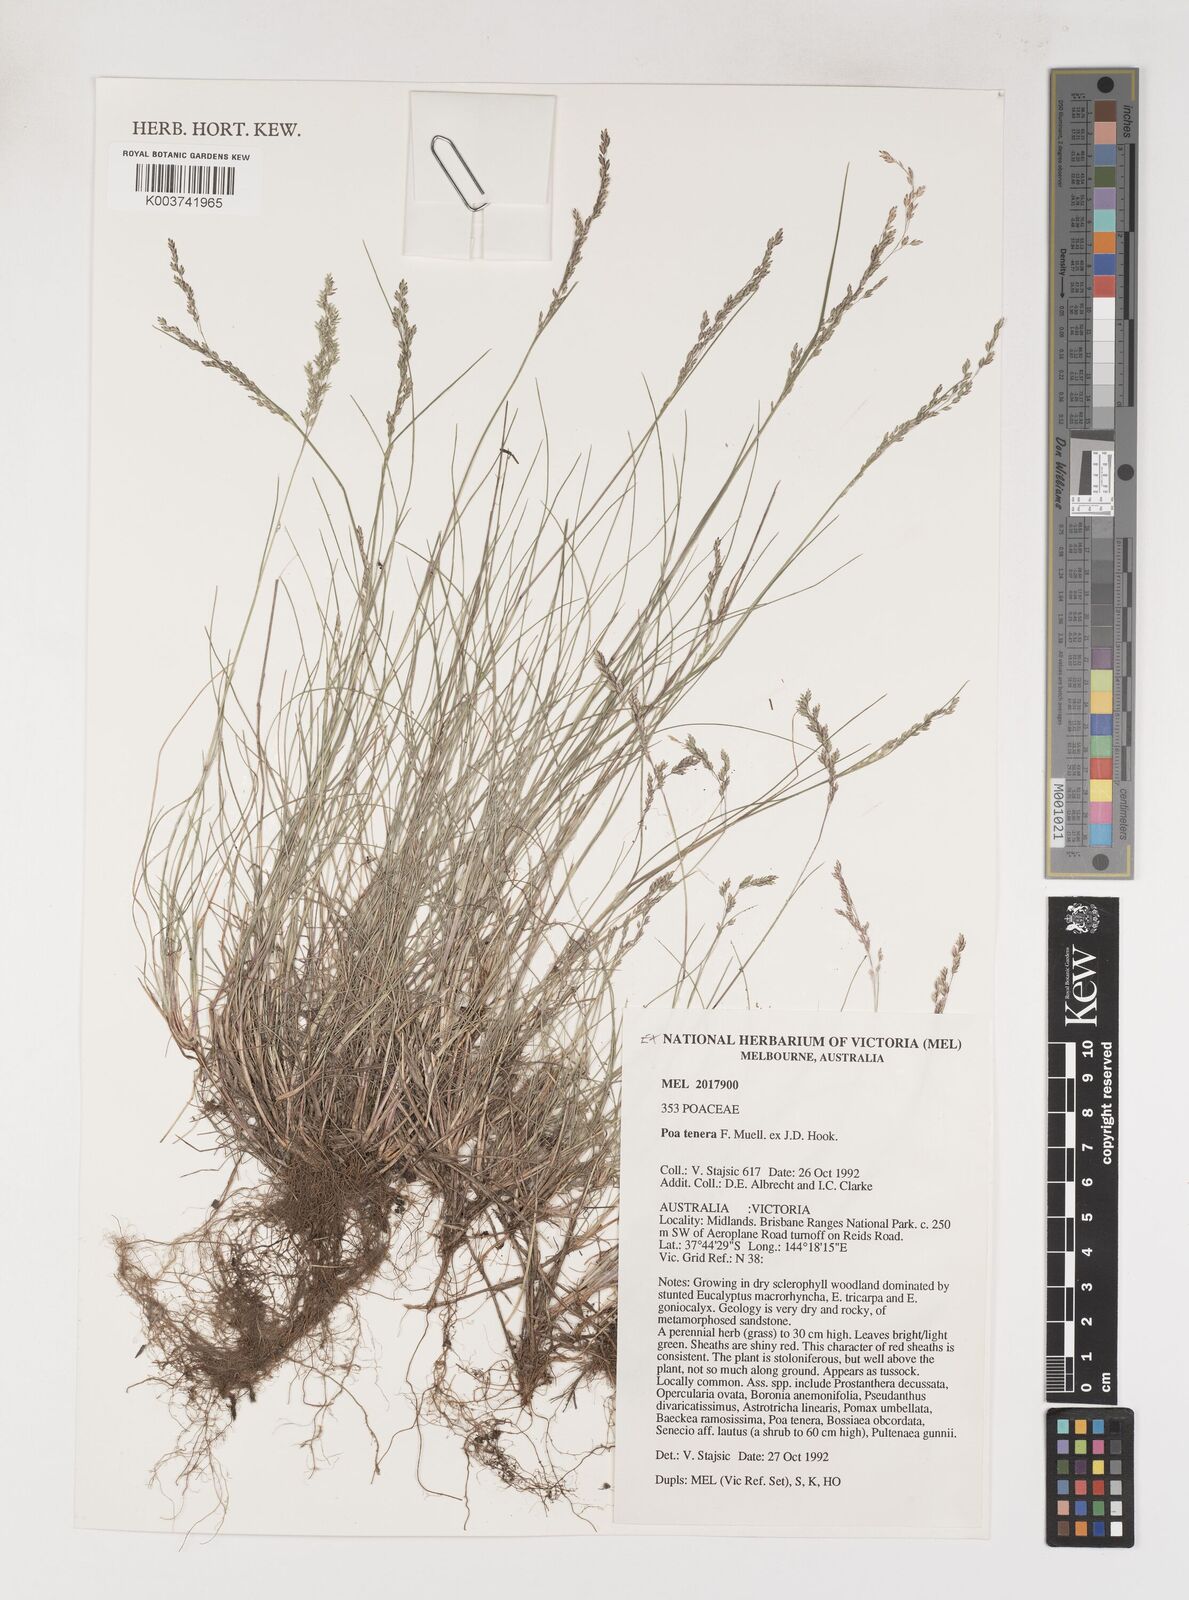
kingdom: Plantae
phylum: Tracheophyta
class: Liliopsida
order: Poales
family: Poaceae
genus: Poa
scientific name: Poa tenera
